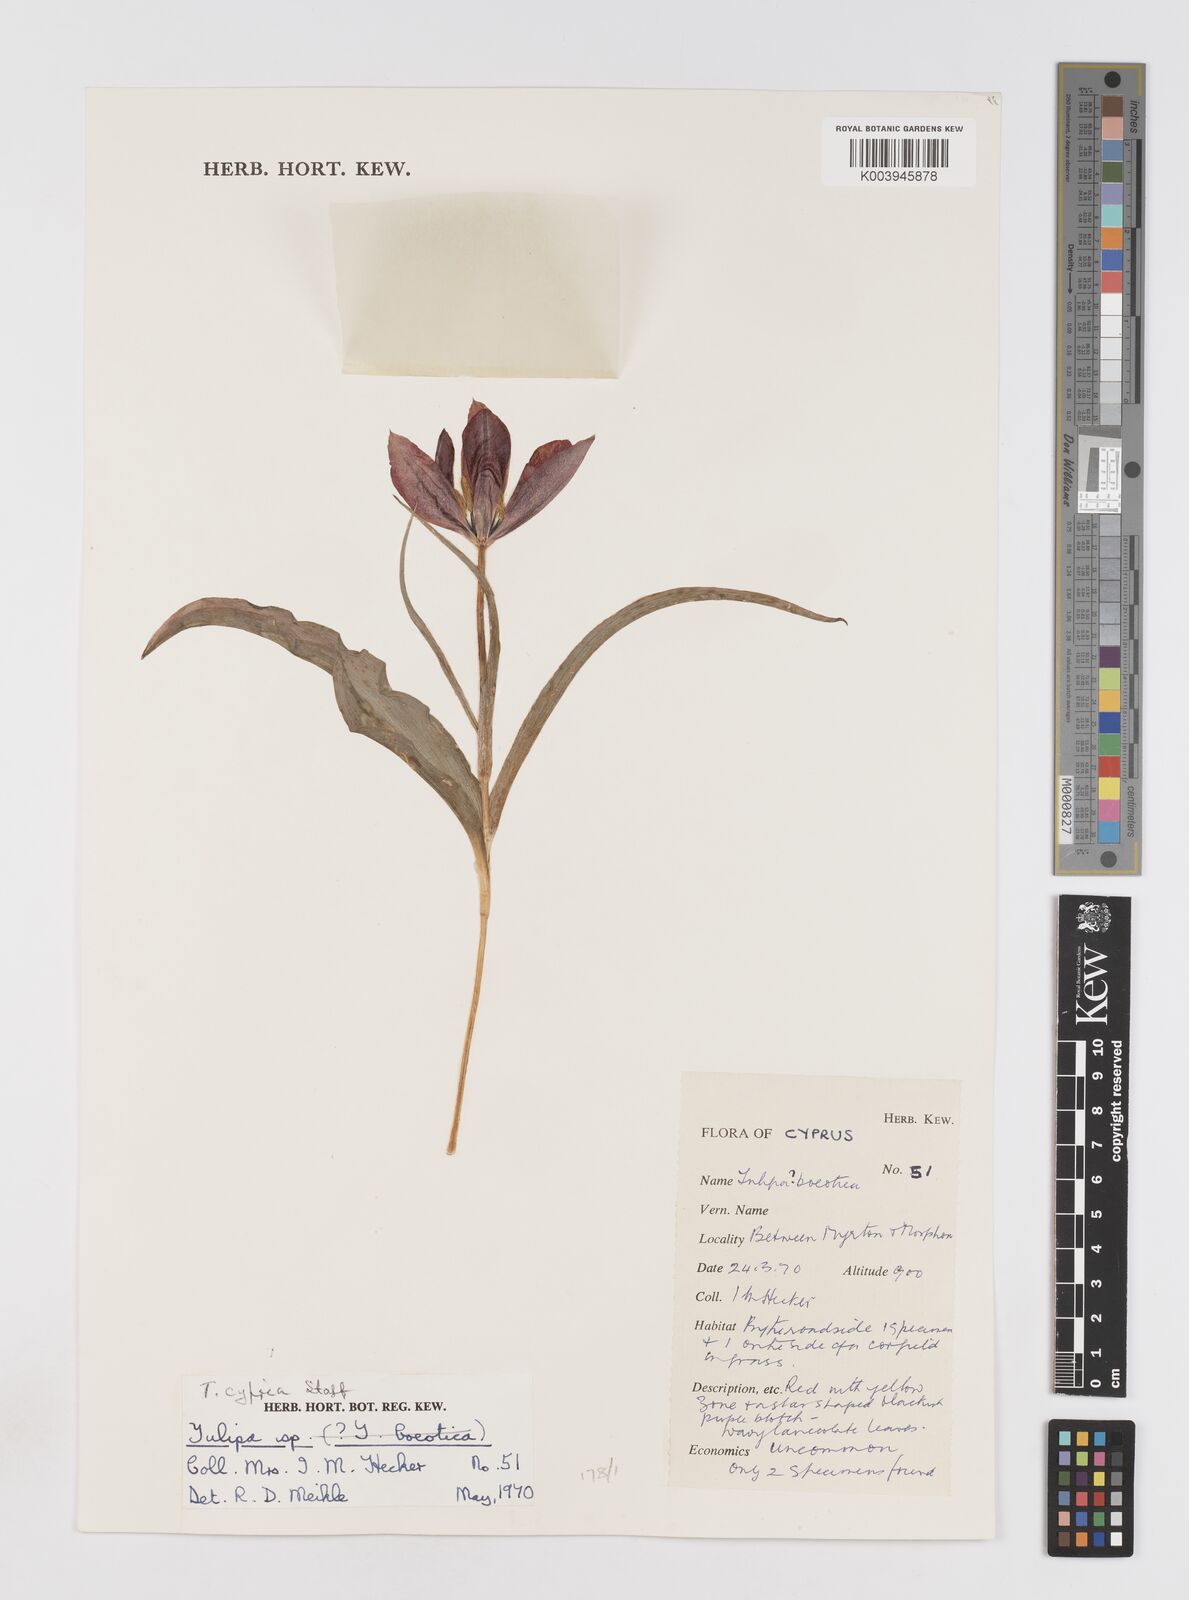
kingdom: Plantae
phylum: Tracheophyta
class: Liliopsida
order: Liliales
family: Liliaceae
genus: Tulipa
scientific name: Tulipa cypria
